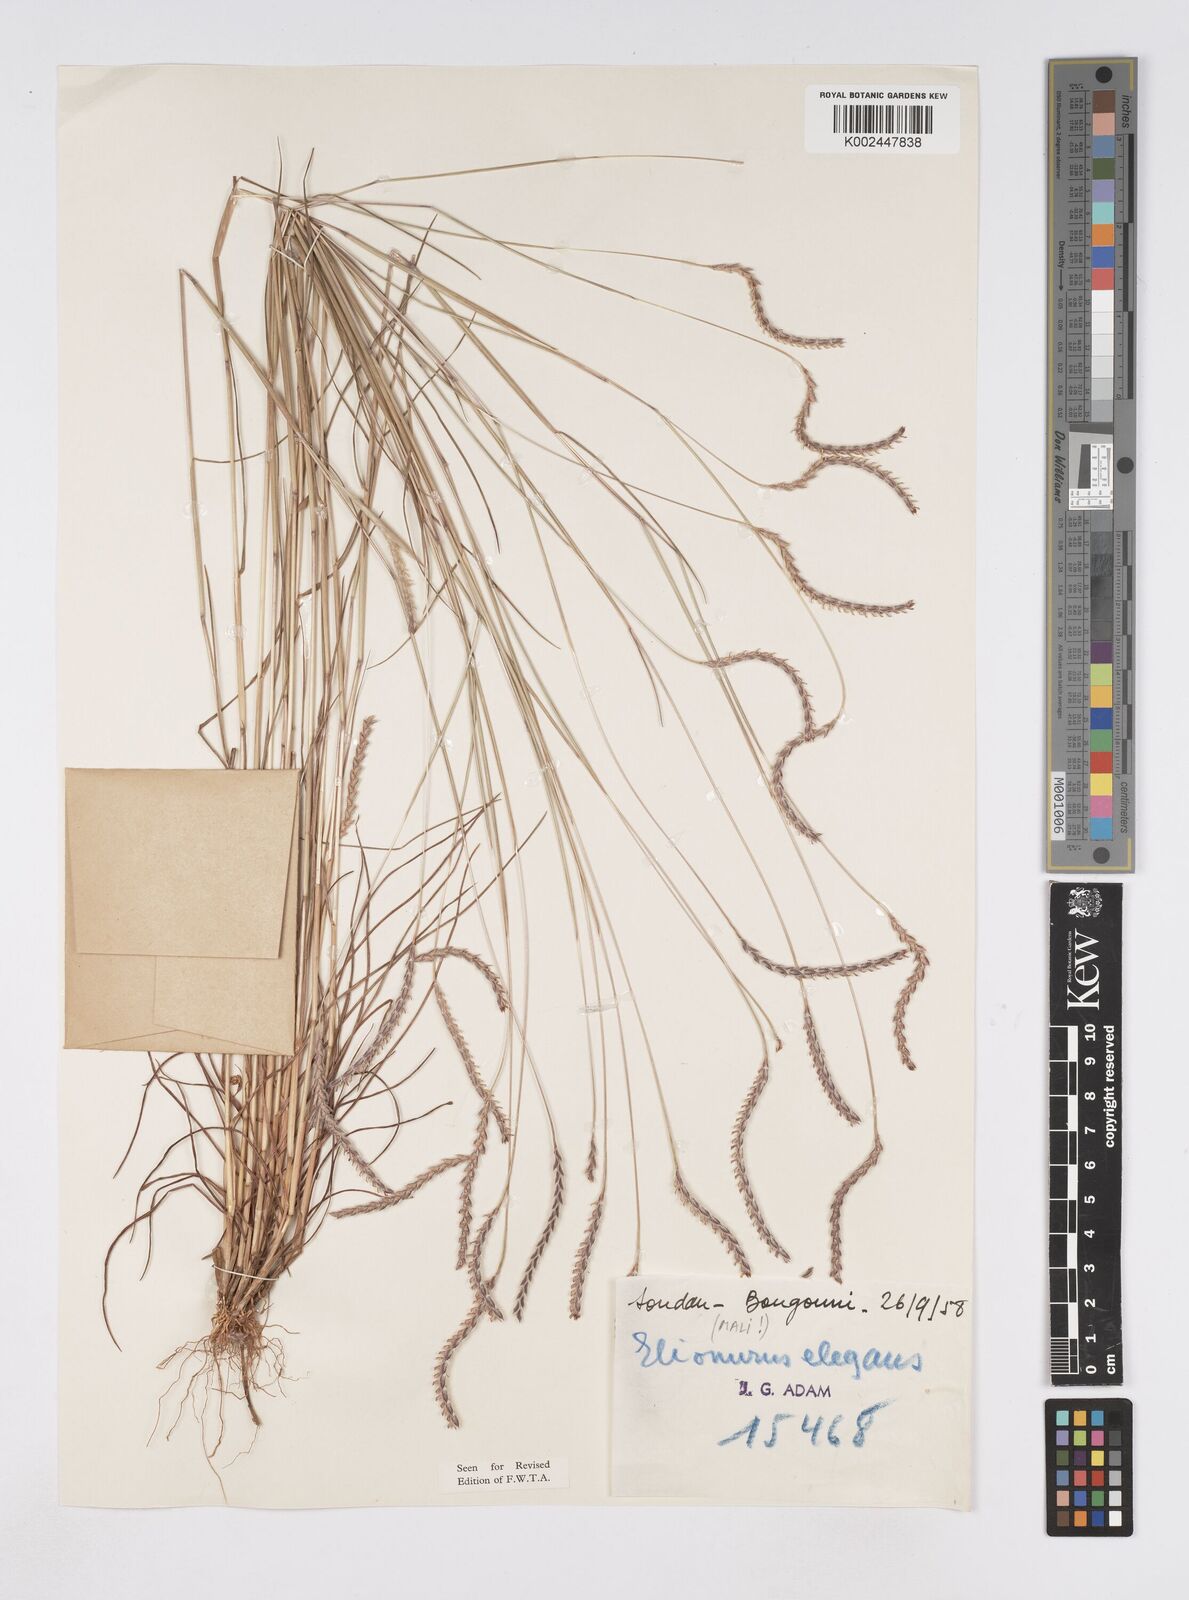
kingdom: Plantae
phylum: Tracheophyta
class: Liliopsida
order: Poales
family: Poaceae
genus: Elionurus
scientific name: Elionurus elegans
